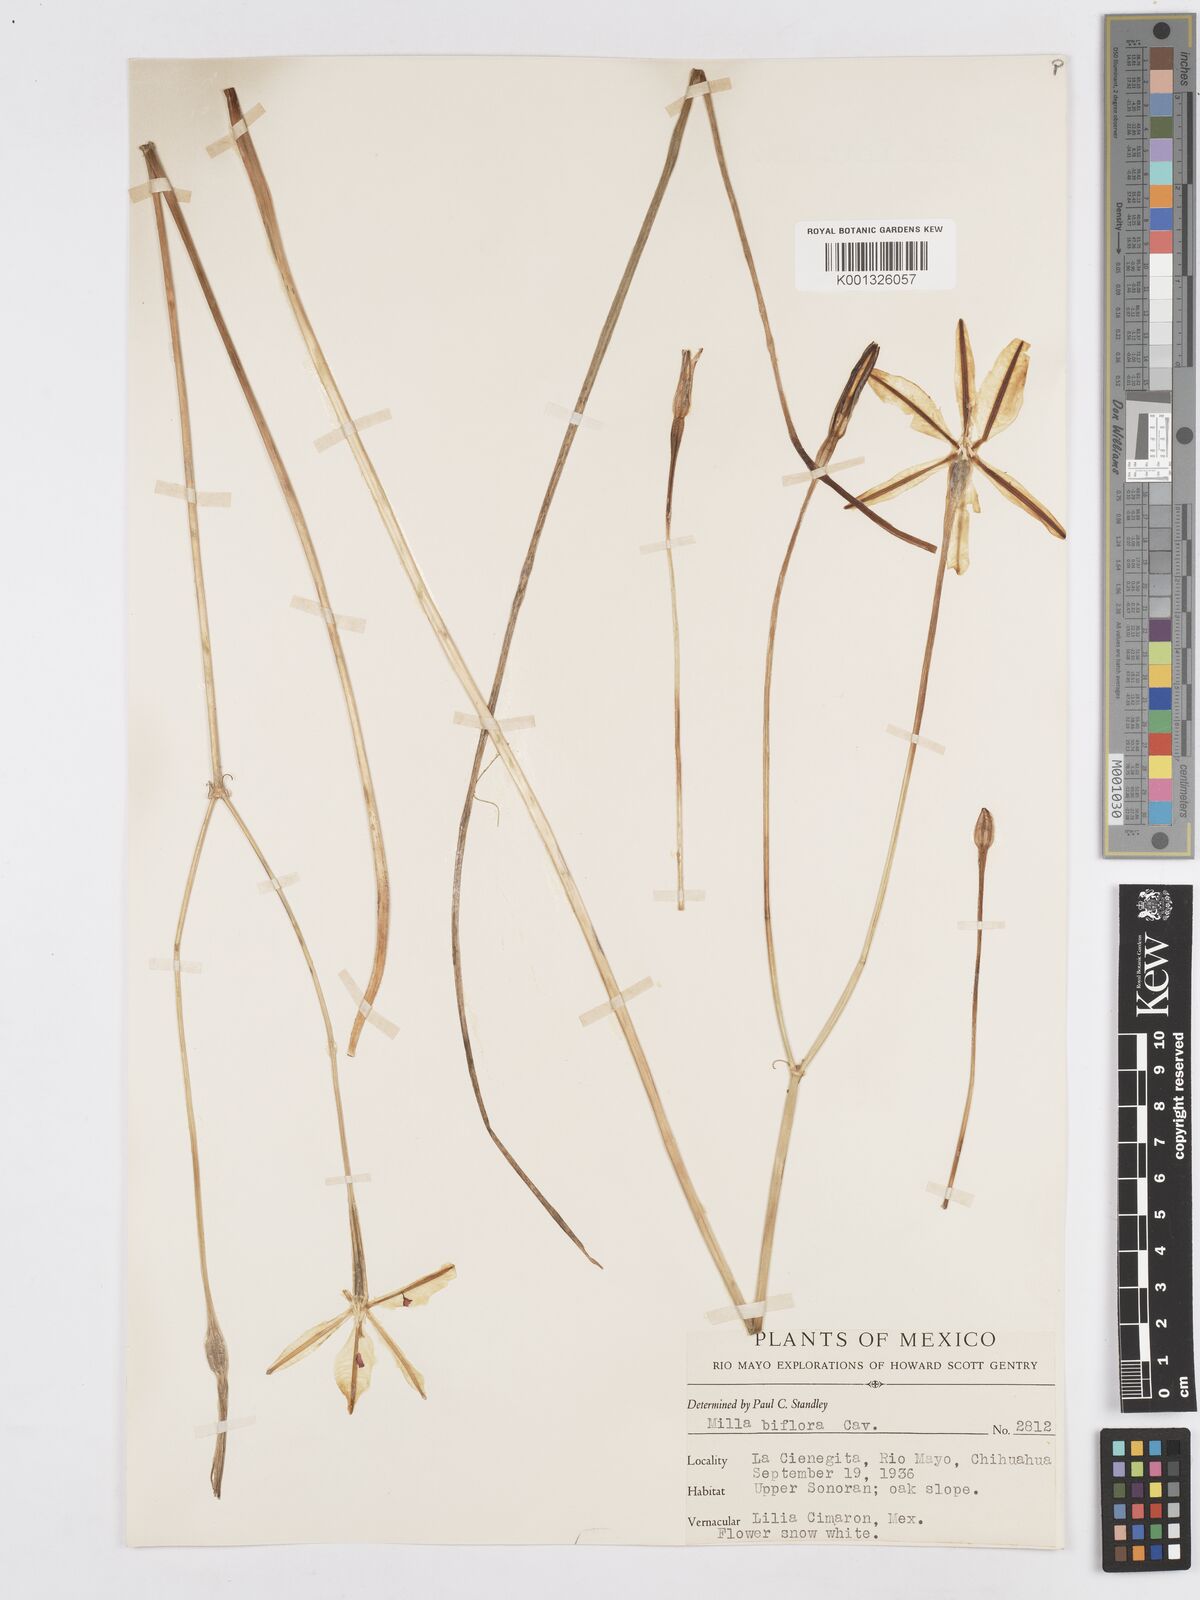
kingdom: Plantae
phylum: Tracheophyta
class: Liliopsida
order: Asparagales
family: Asparagaceae
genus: Milla
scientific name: Milla biflora
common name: Mexican-star
